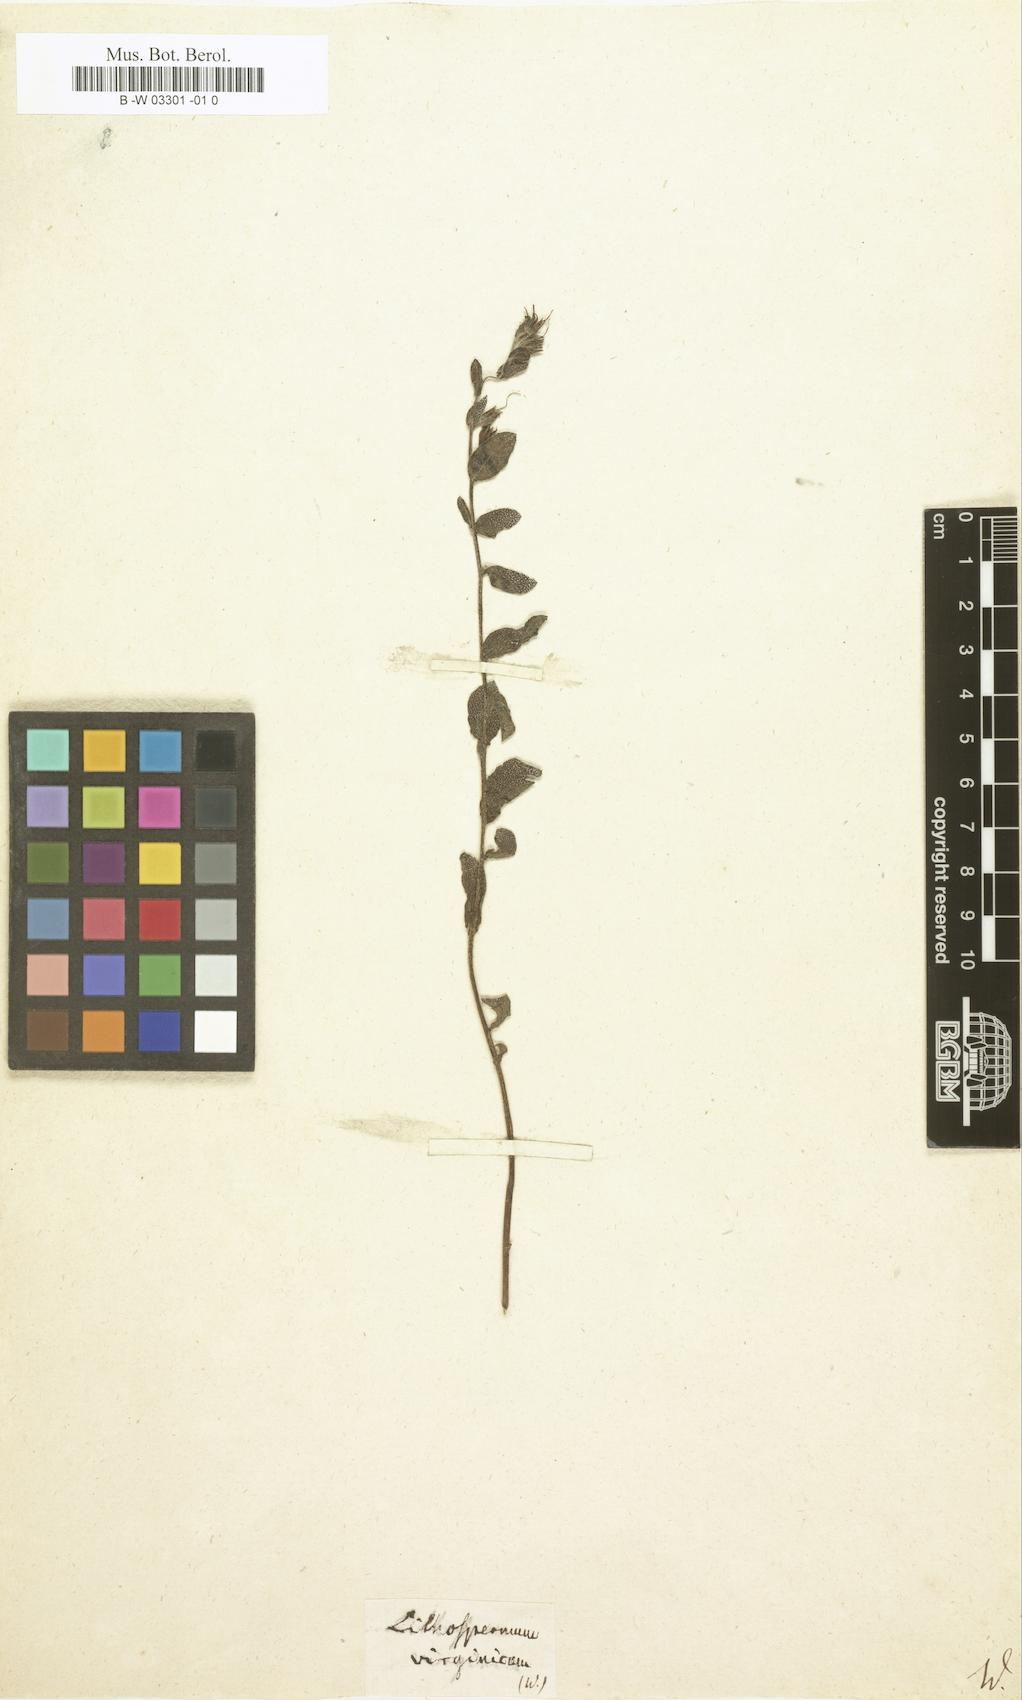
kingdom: Plantae
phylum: Tracheophyta
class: Magnoliopsida
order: Boraginales
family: Boraginaceae
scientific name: Boraginaceae
